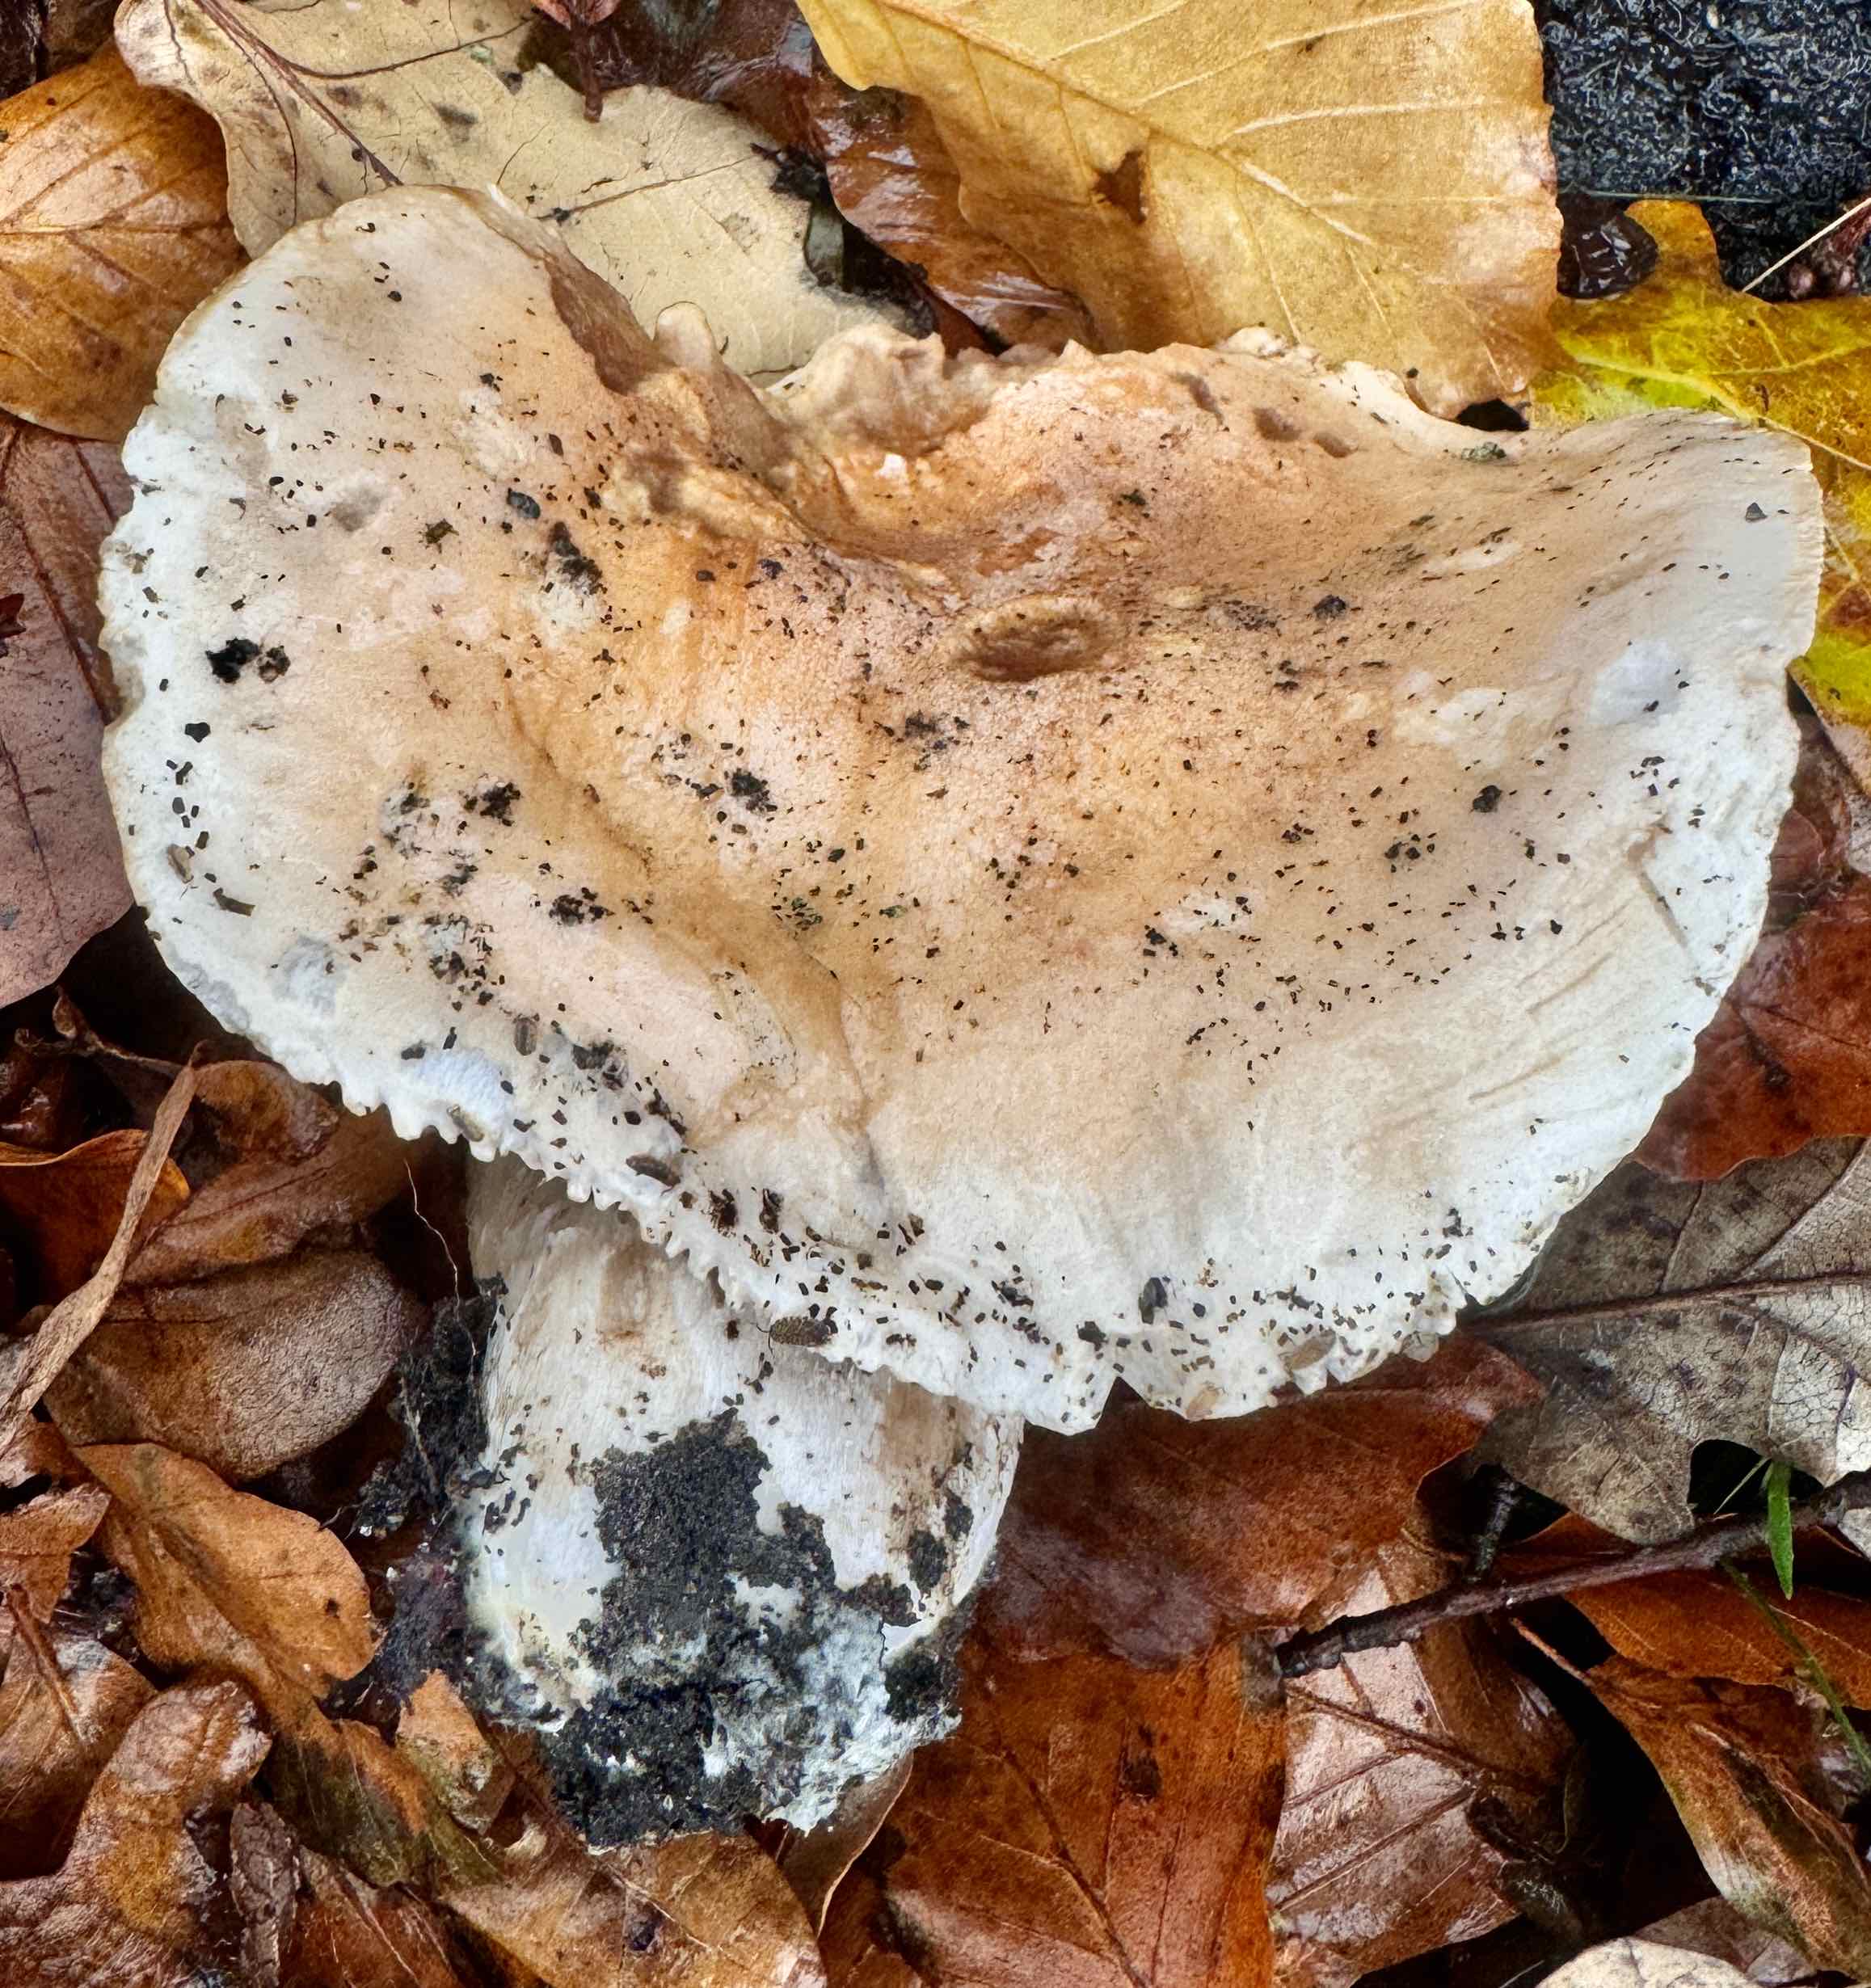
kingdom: Fungi
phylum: Basidiomycota
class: Agaricomycetes
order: Agaricales
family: Hymenogastraceae
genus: Hebeloma
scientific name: Hebeloma sinapizans
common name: ræddike-tåreblad
